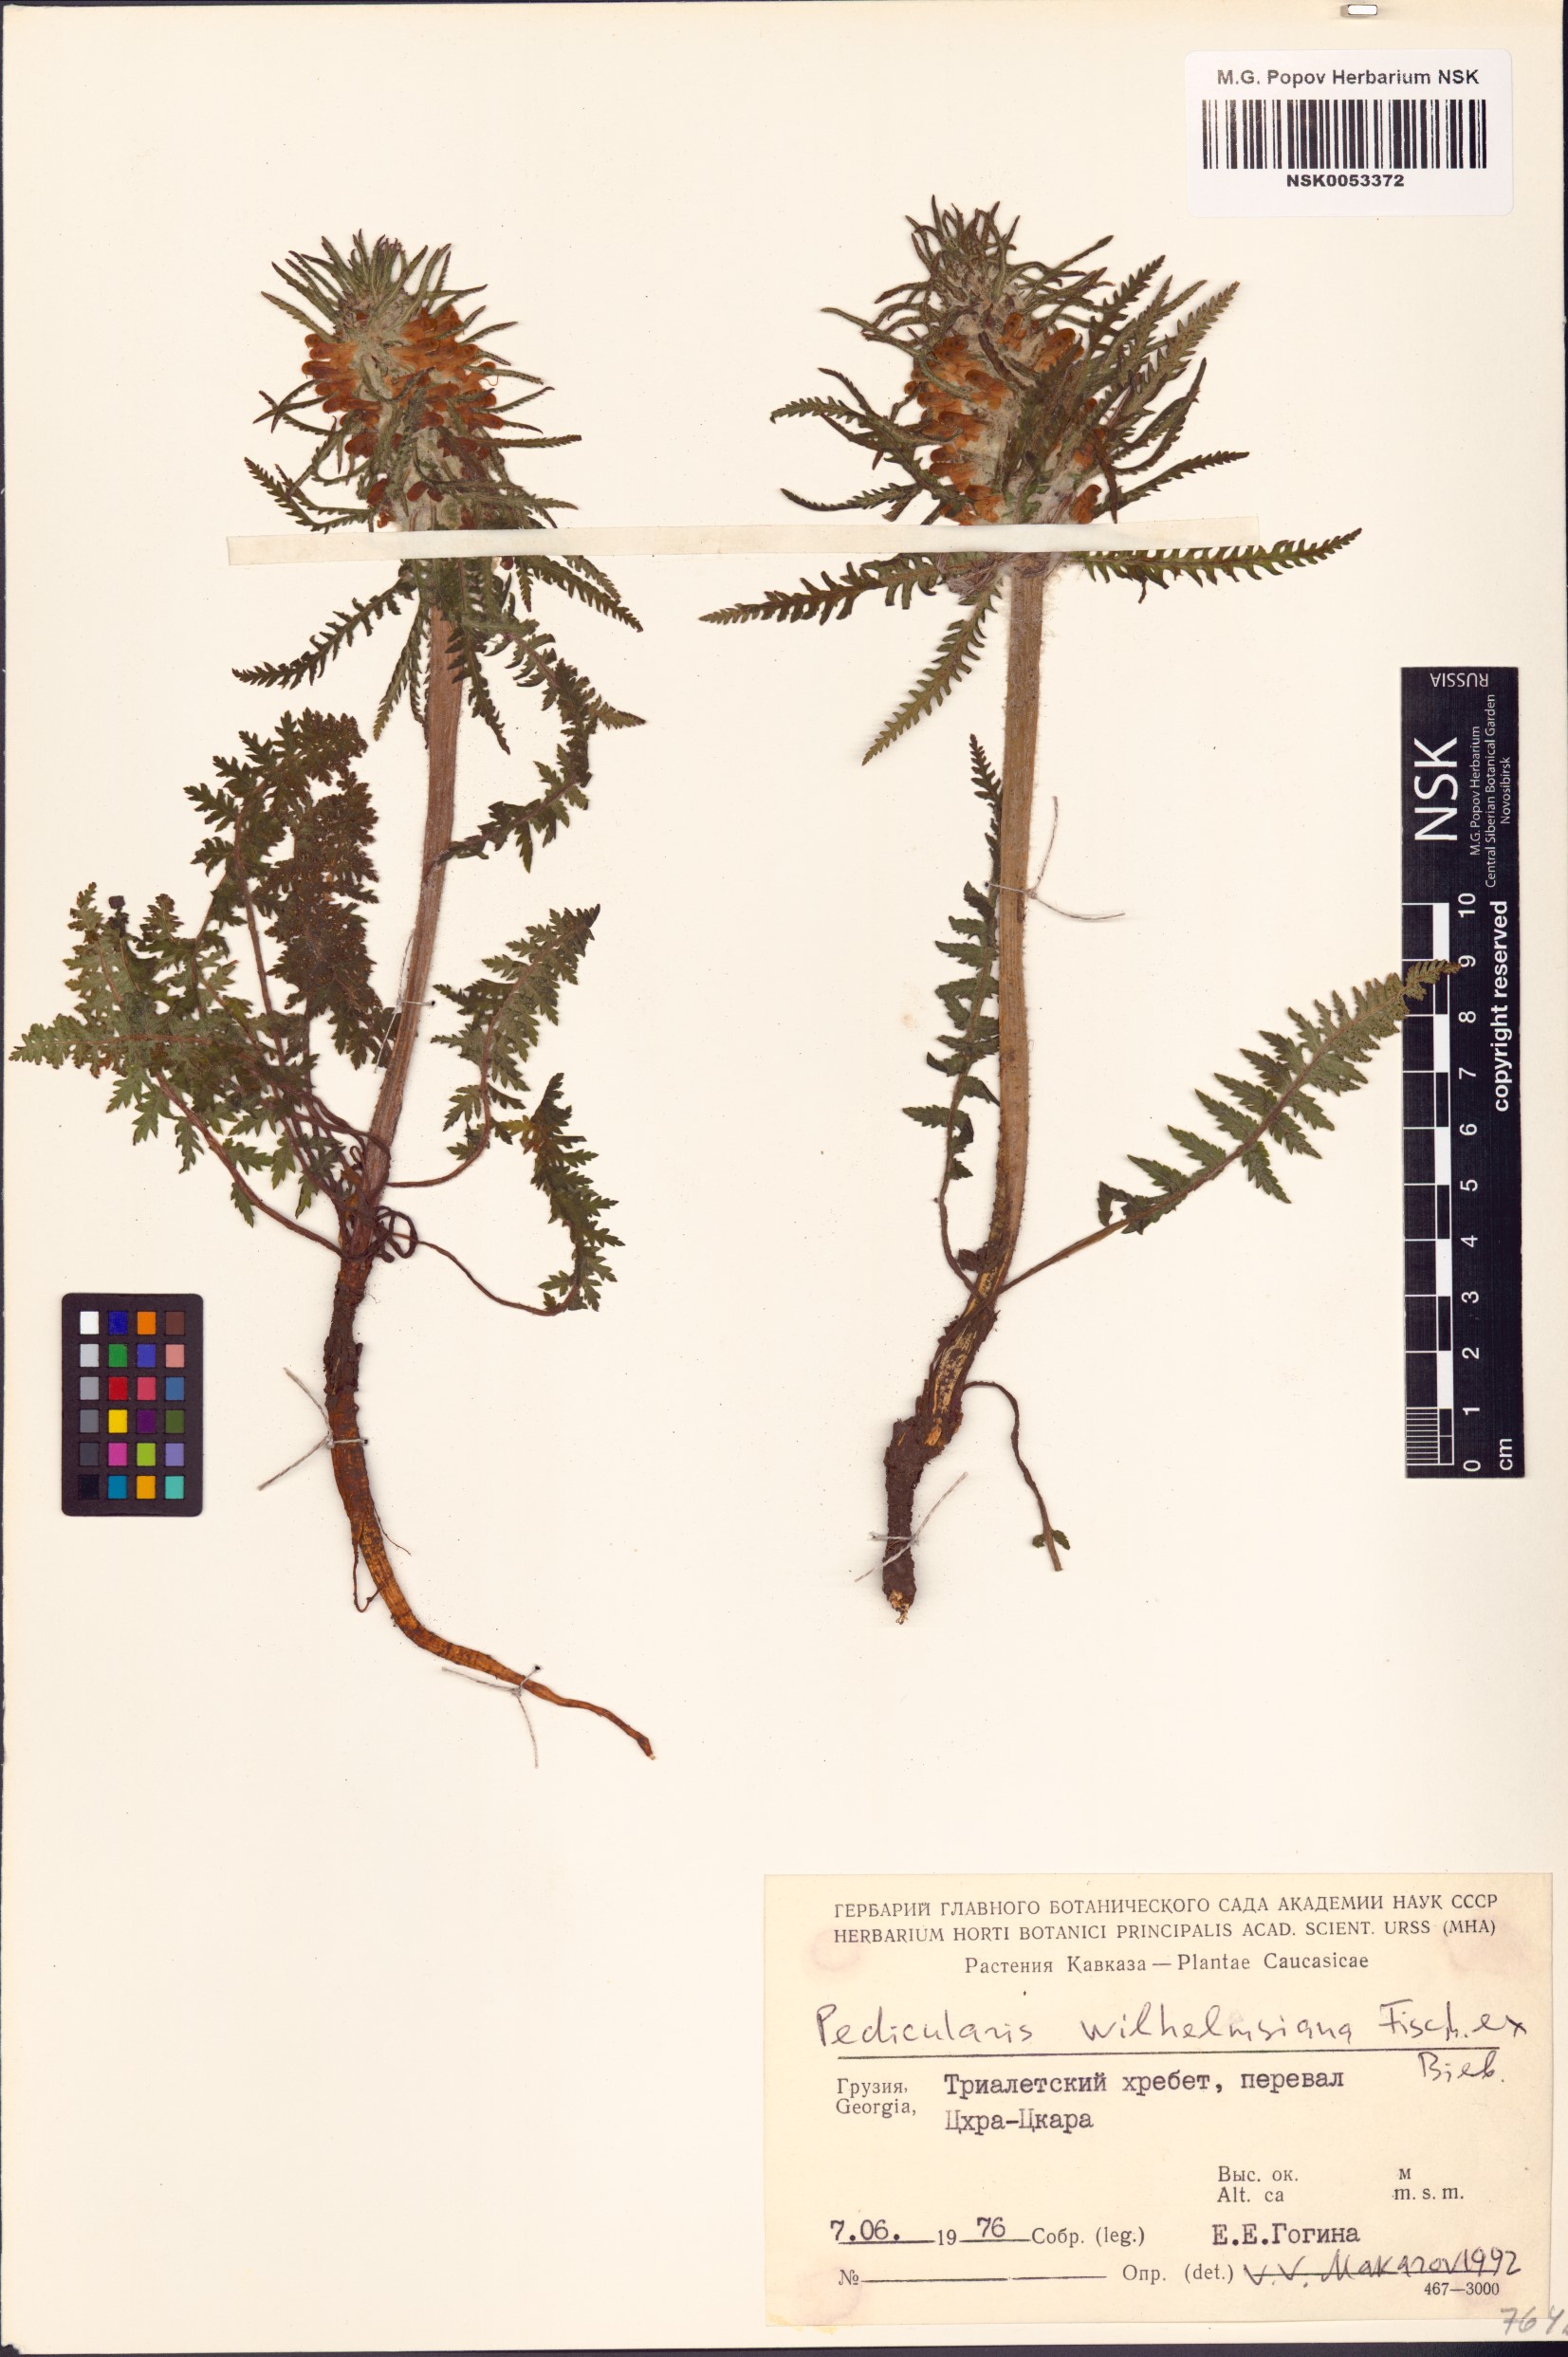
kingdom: Plantae
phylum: Tracheophyta
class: Magnoliopsida
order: Lamiales
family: Orobanchaceae
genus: Pedicularis
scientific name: Pedicularis wilhelmsiana
